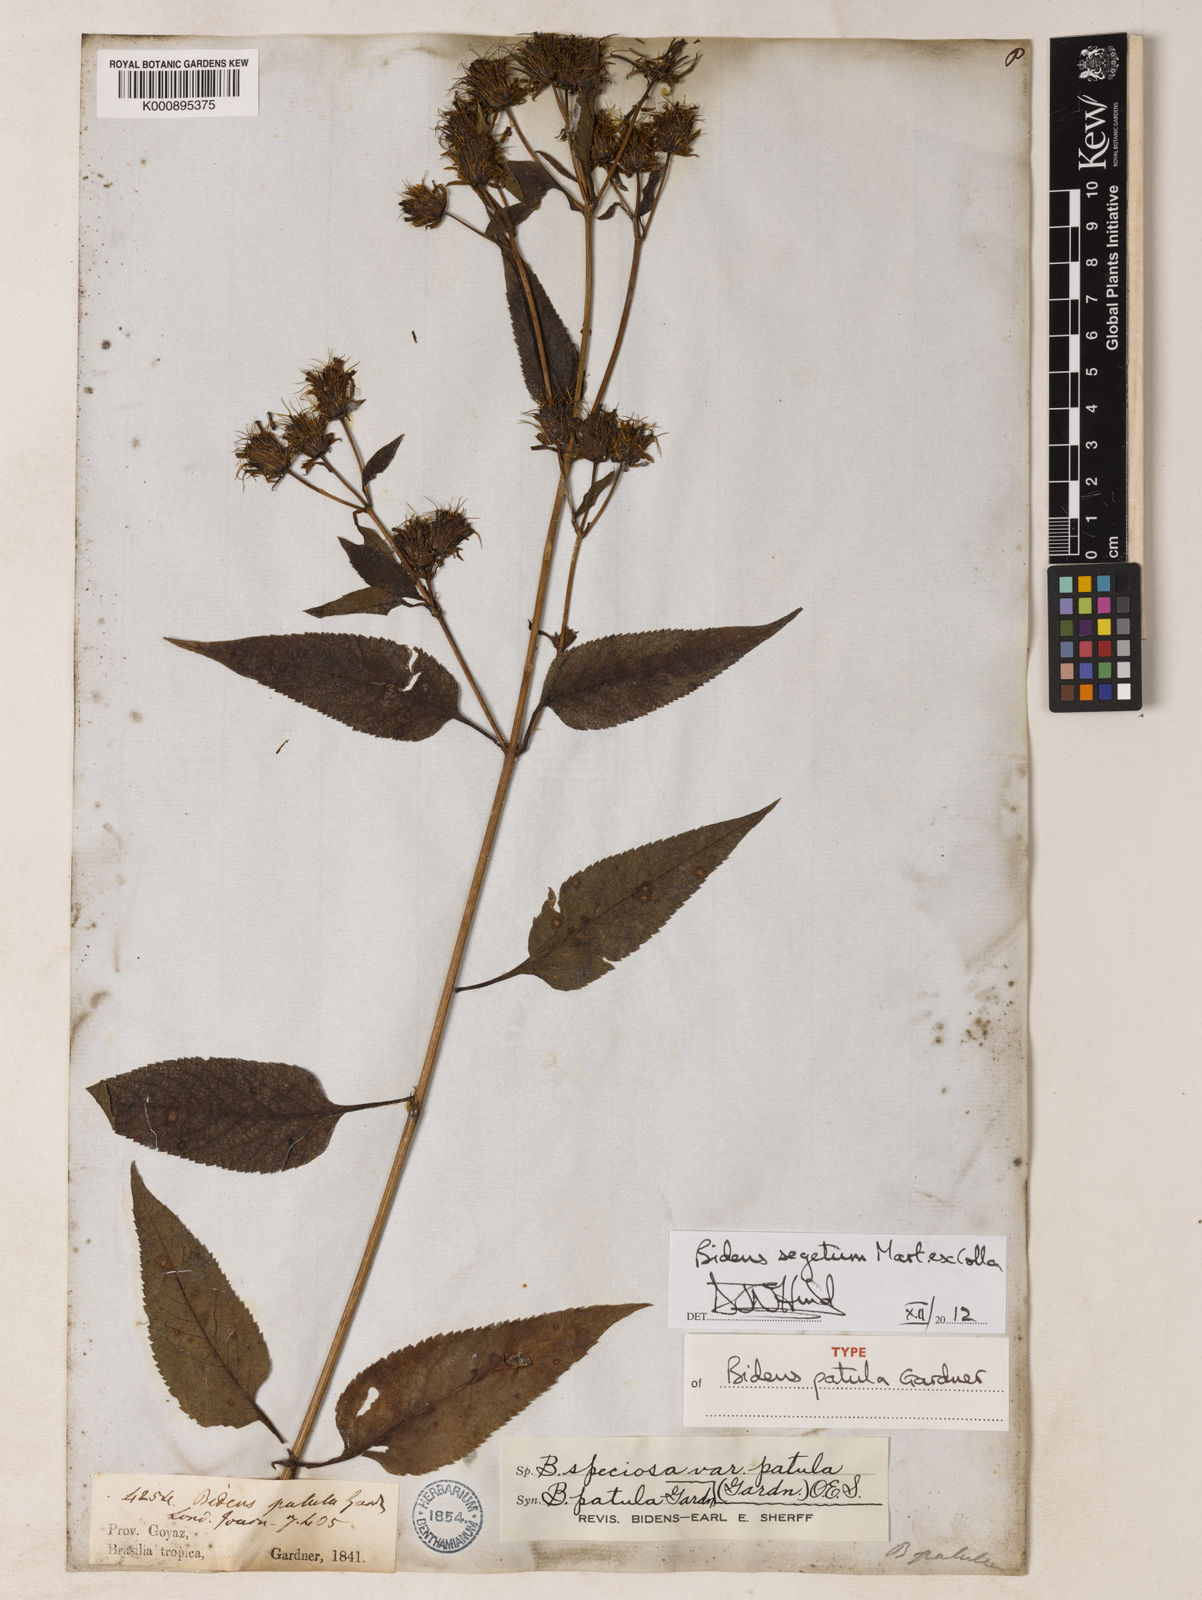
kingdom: Plantae
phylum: Tracheophyta
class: Magnoliopsida
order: Asterales
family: Asteraceae
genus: Bidens
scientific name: Bidens segetum
